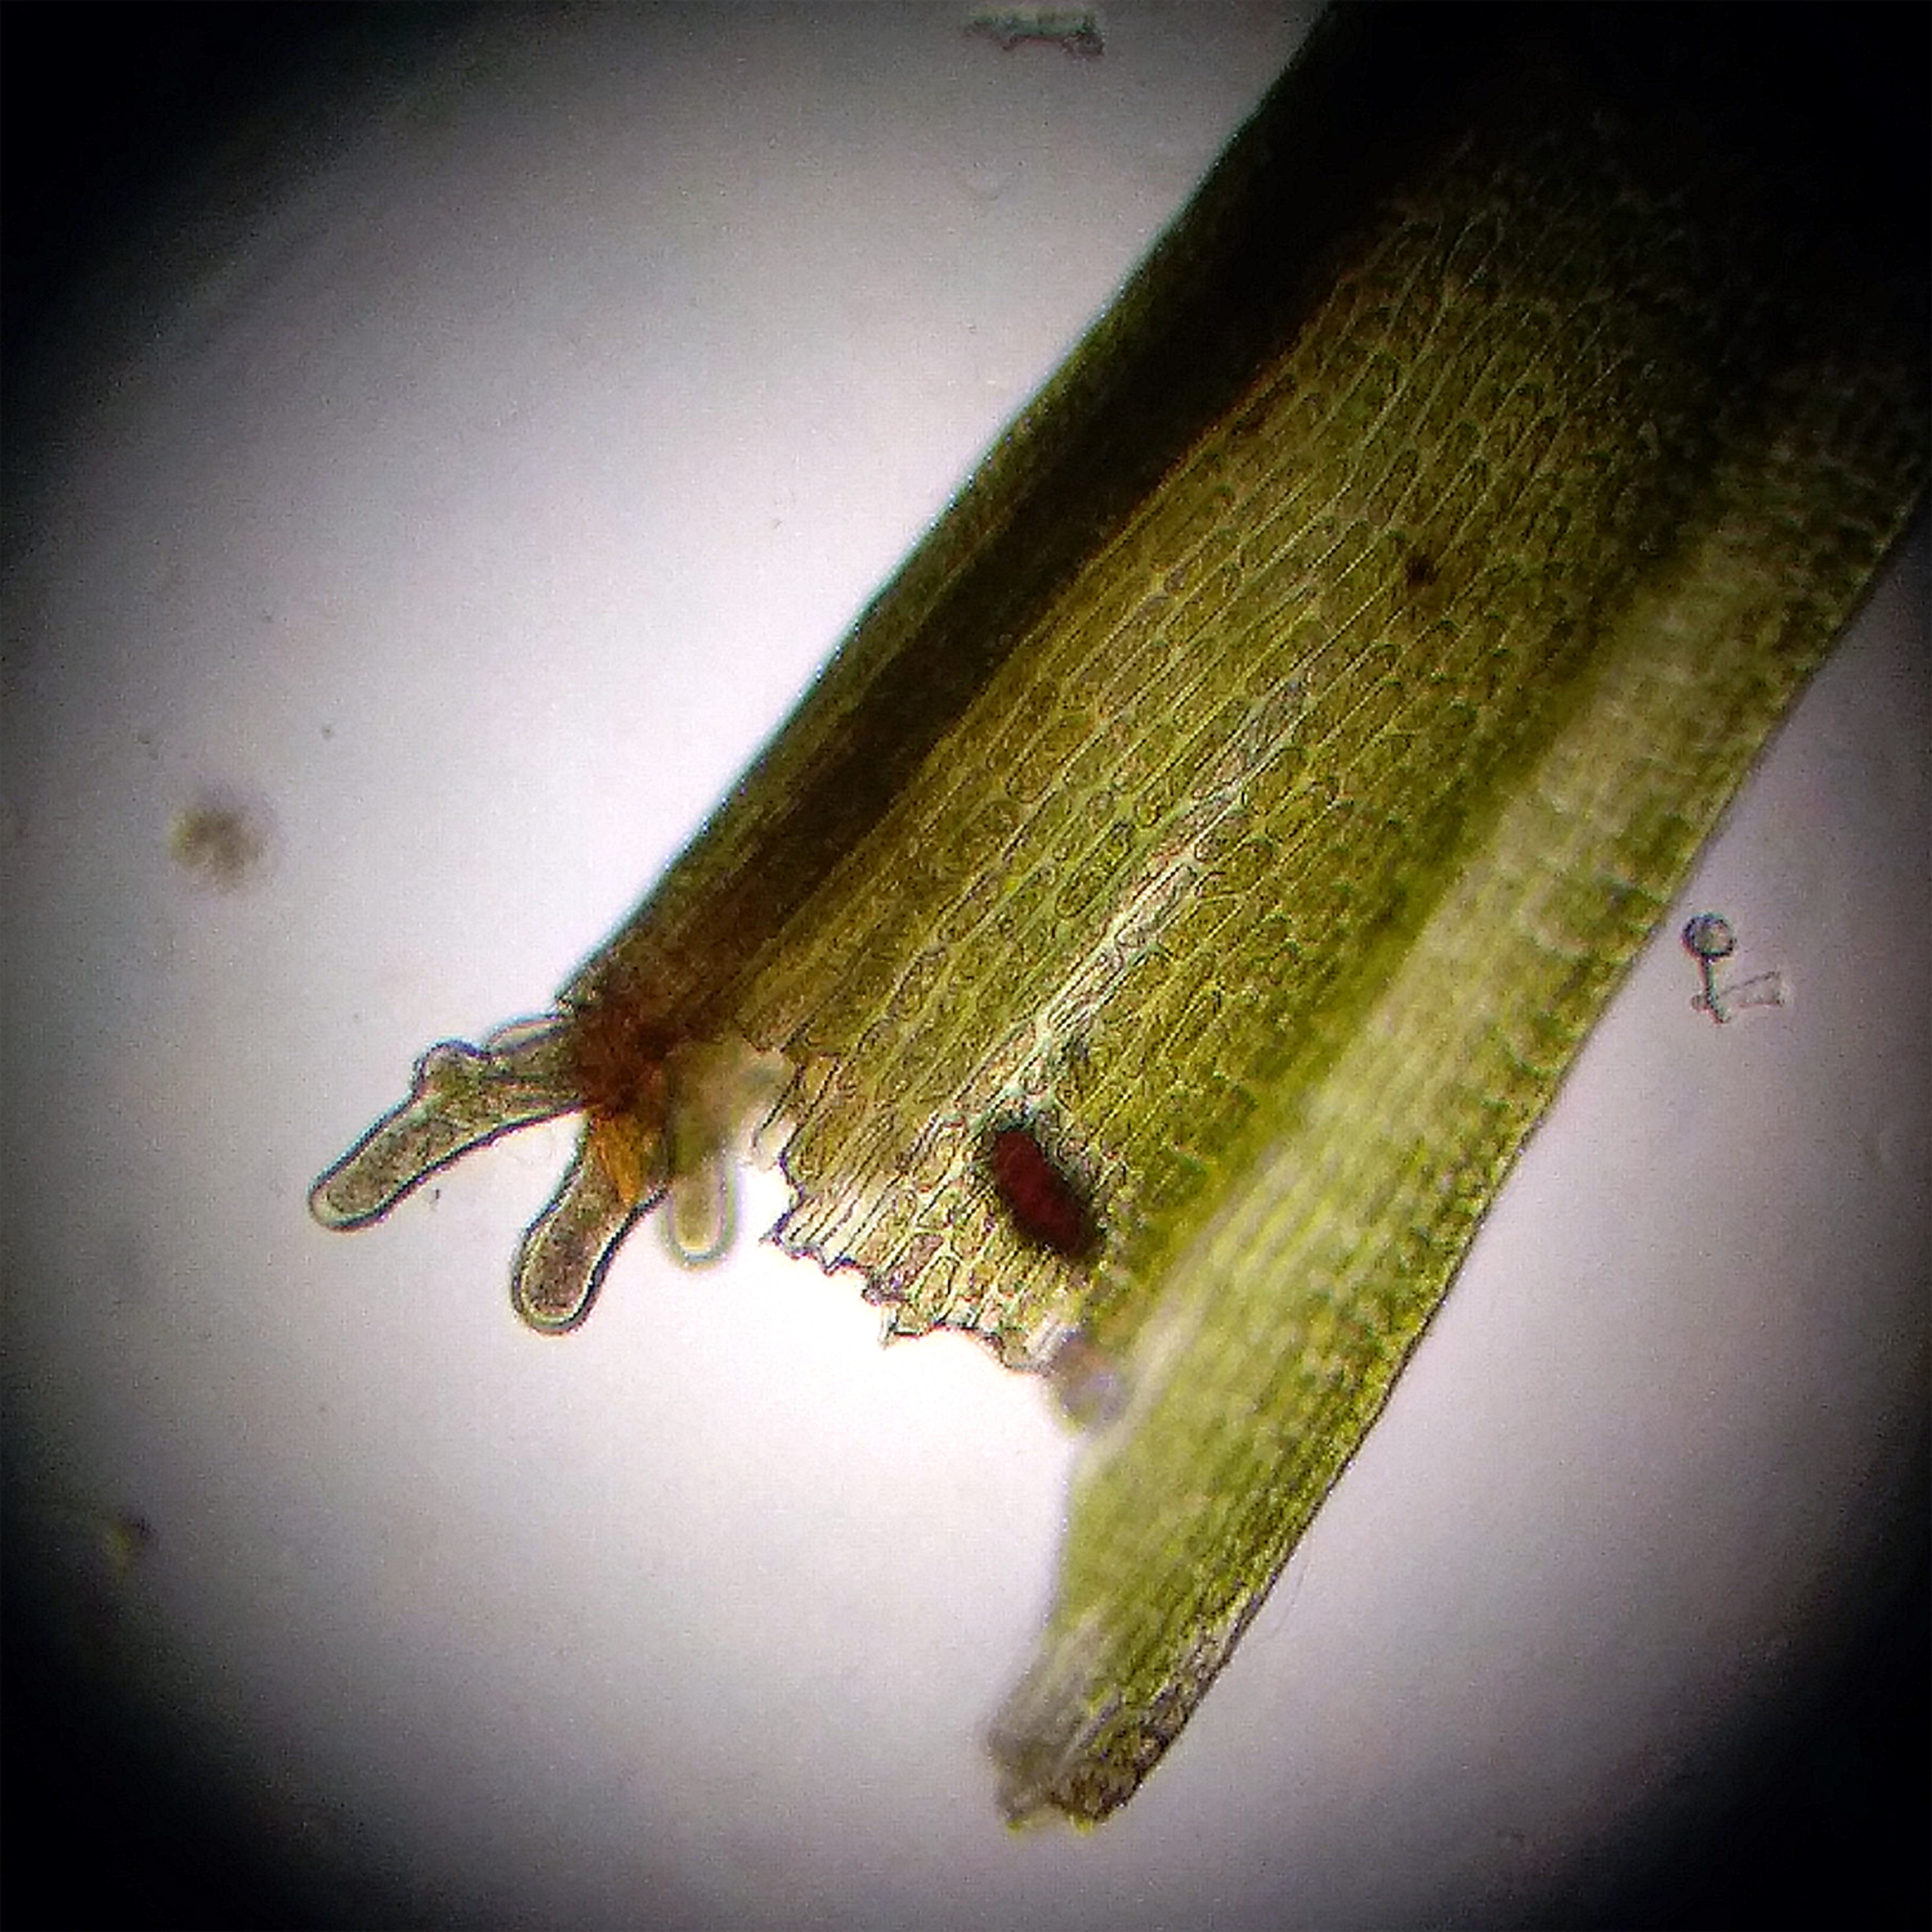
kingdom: Plantae
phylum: Bryophyta
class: Bryopsida
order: Dicranales
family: Dicranaceae
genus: Orthodicranum
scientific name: Orthodicranum tauricum
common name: Skør tyndvinge
